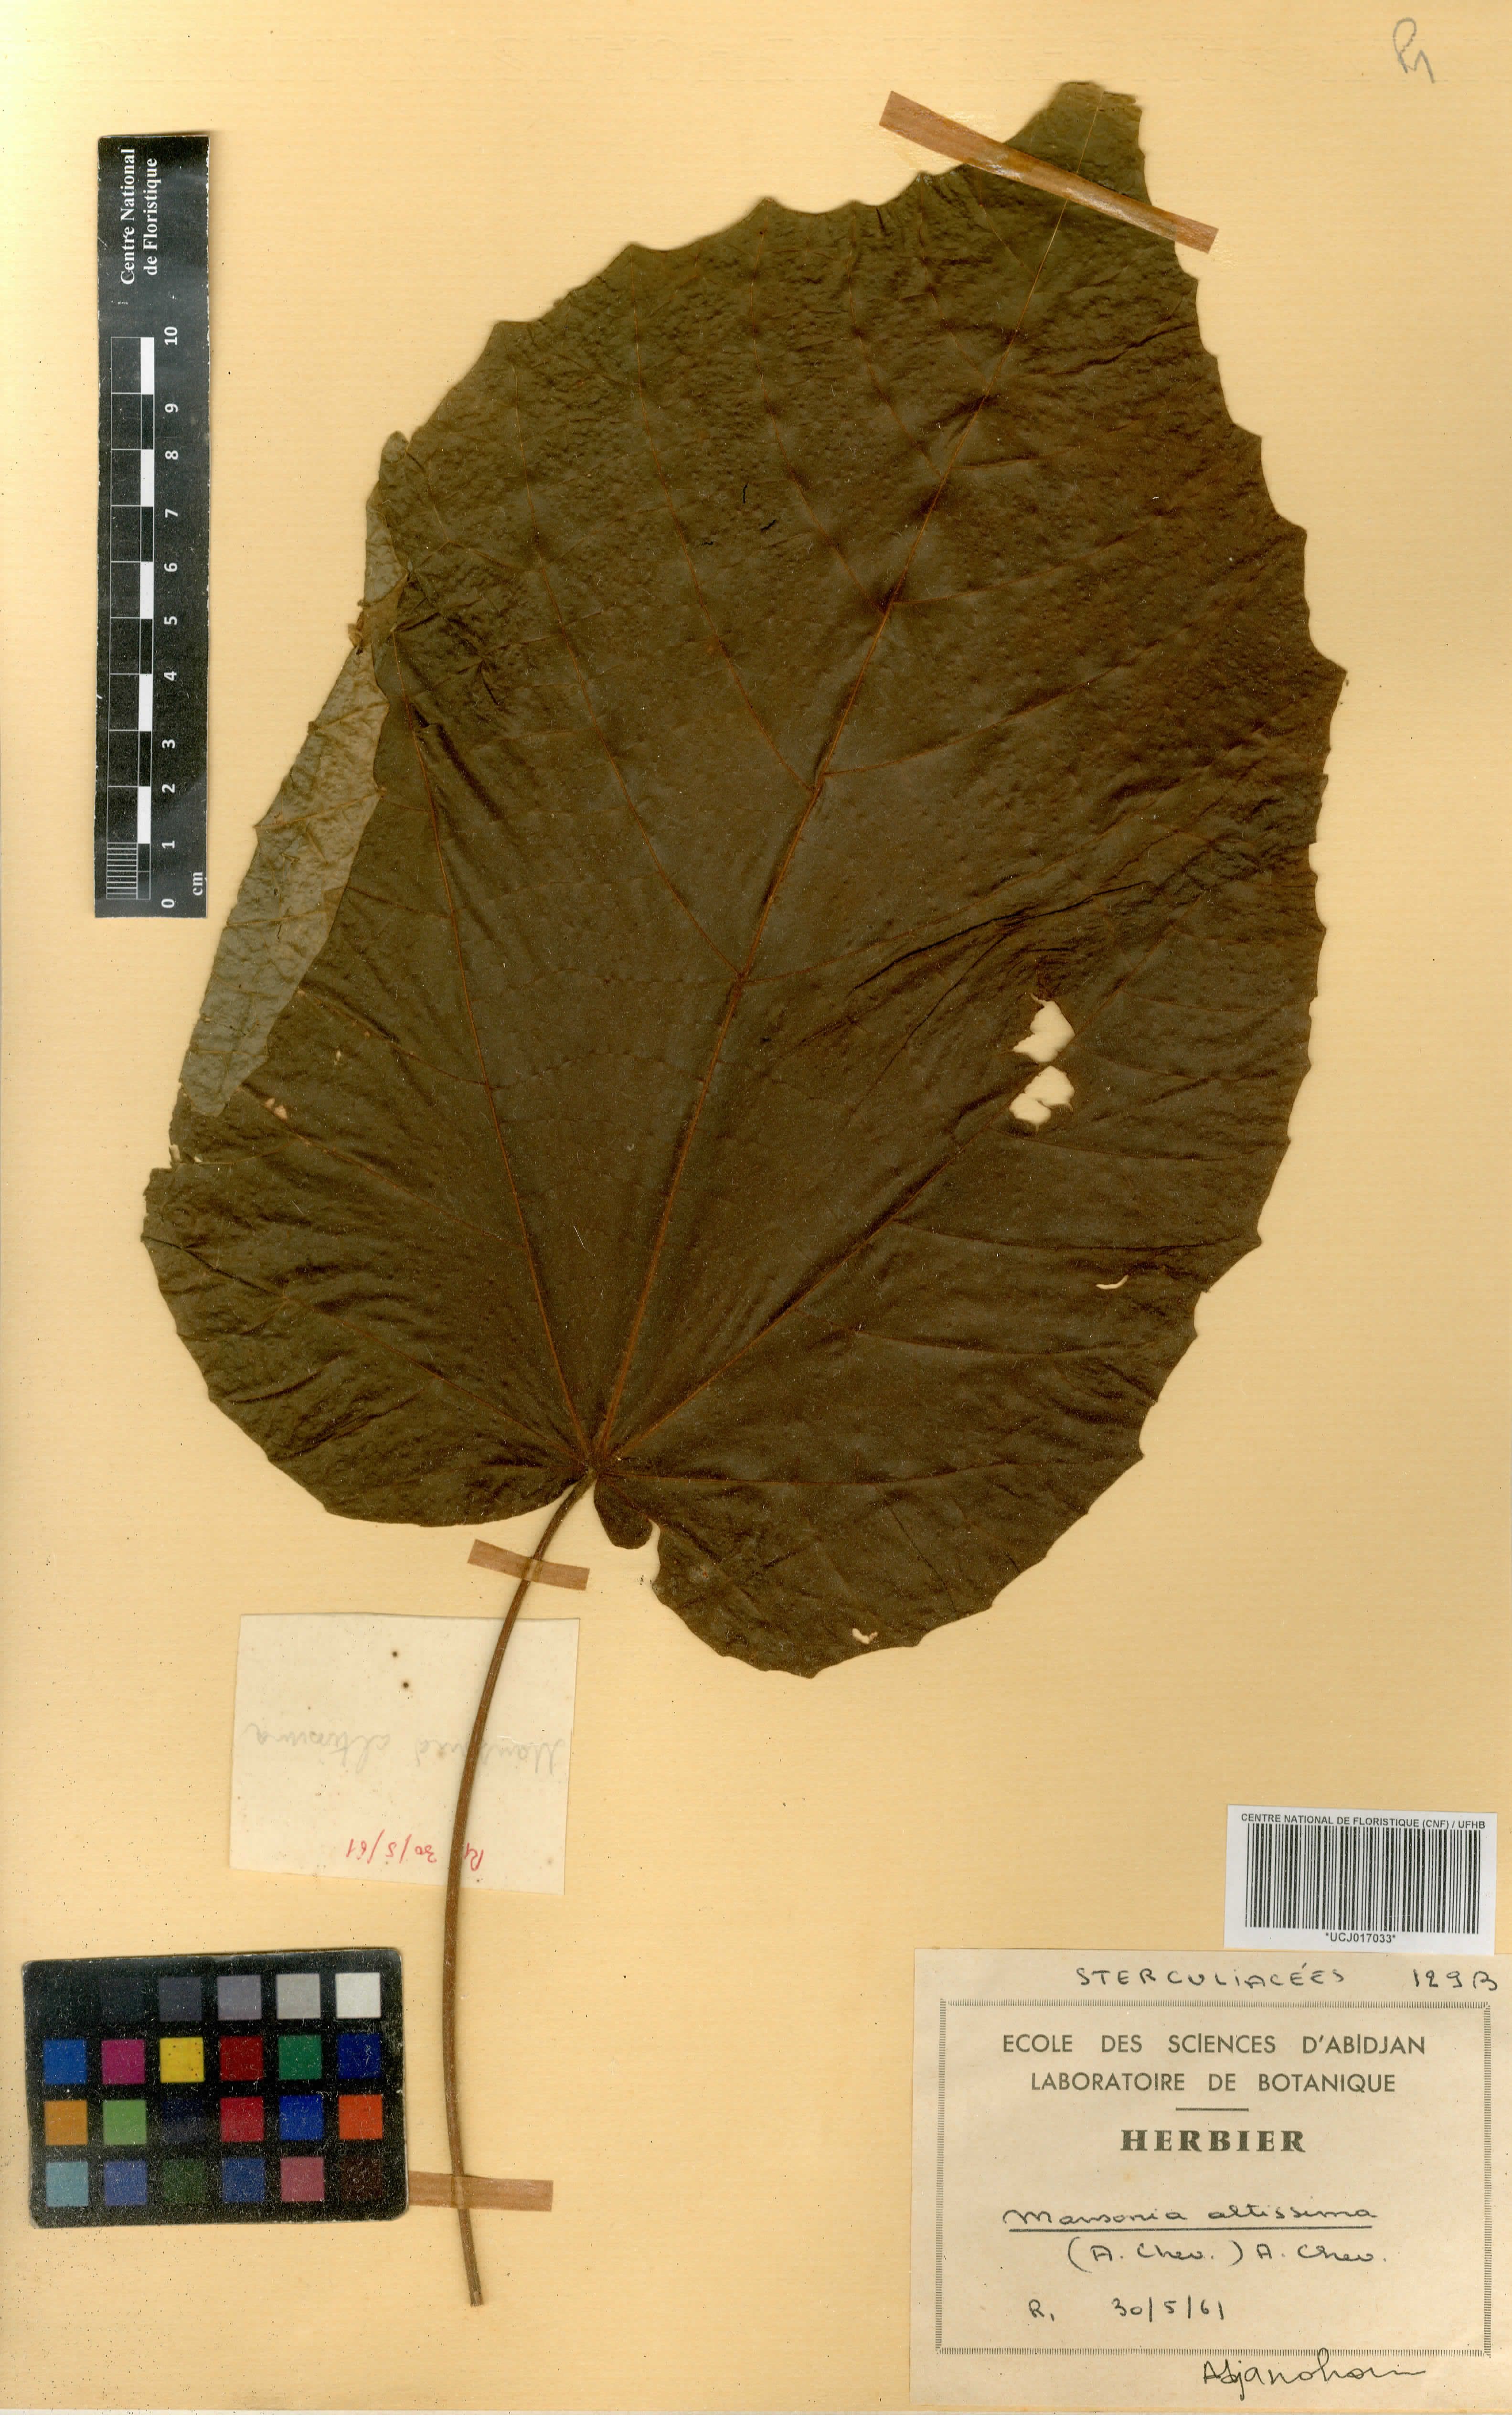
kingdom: Plantae
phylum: Tracheophyta
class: Magnoliopsida
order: Malvales
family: Malvaceae
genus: Mansonia
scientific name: Mansonia altissima
